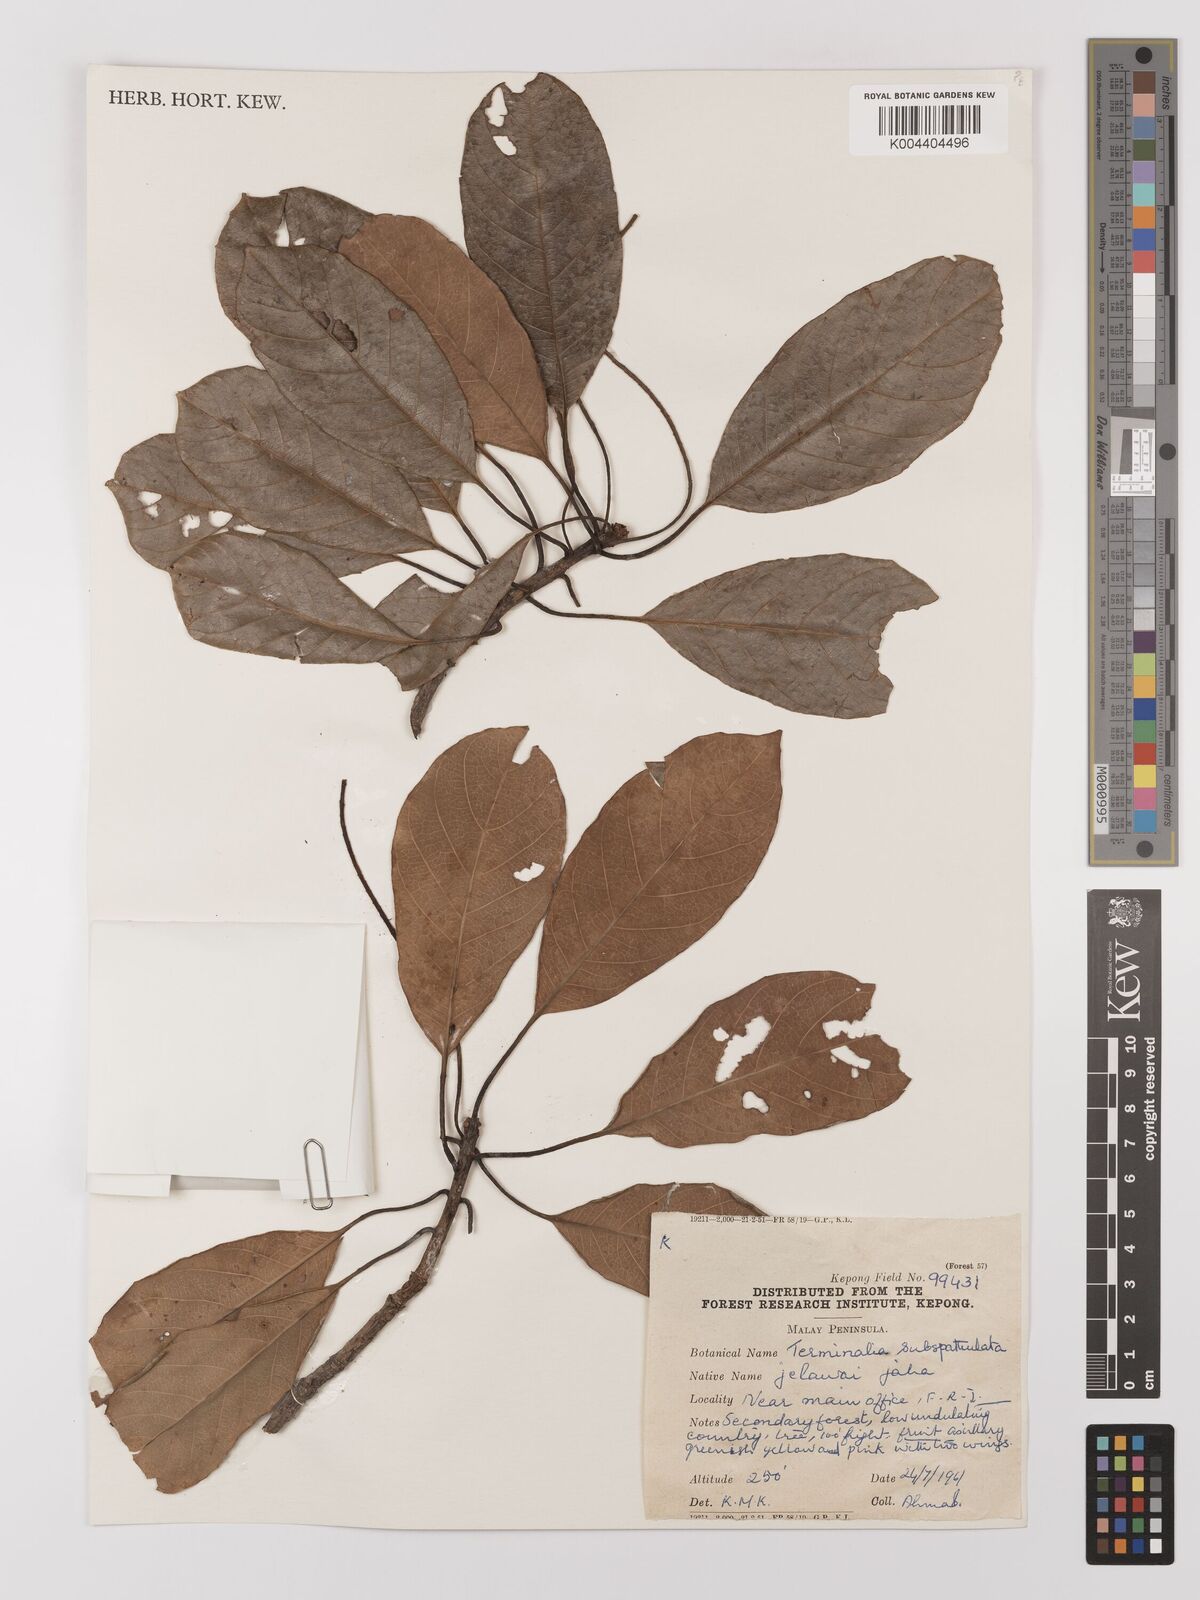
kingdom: Plantae
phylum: Tracheophyta
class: Magnoliopsida
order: Myrtales
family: Combretaceae
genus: Terminalia
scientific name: Terminalia subspathulata
